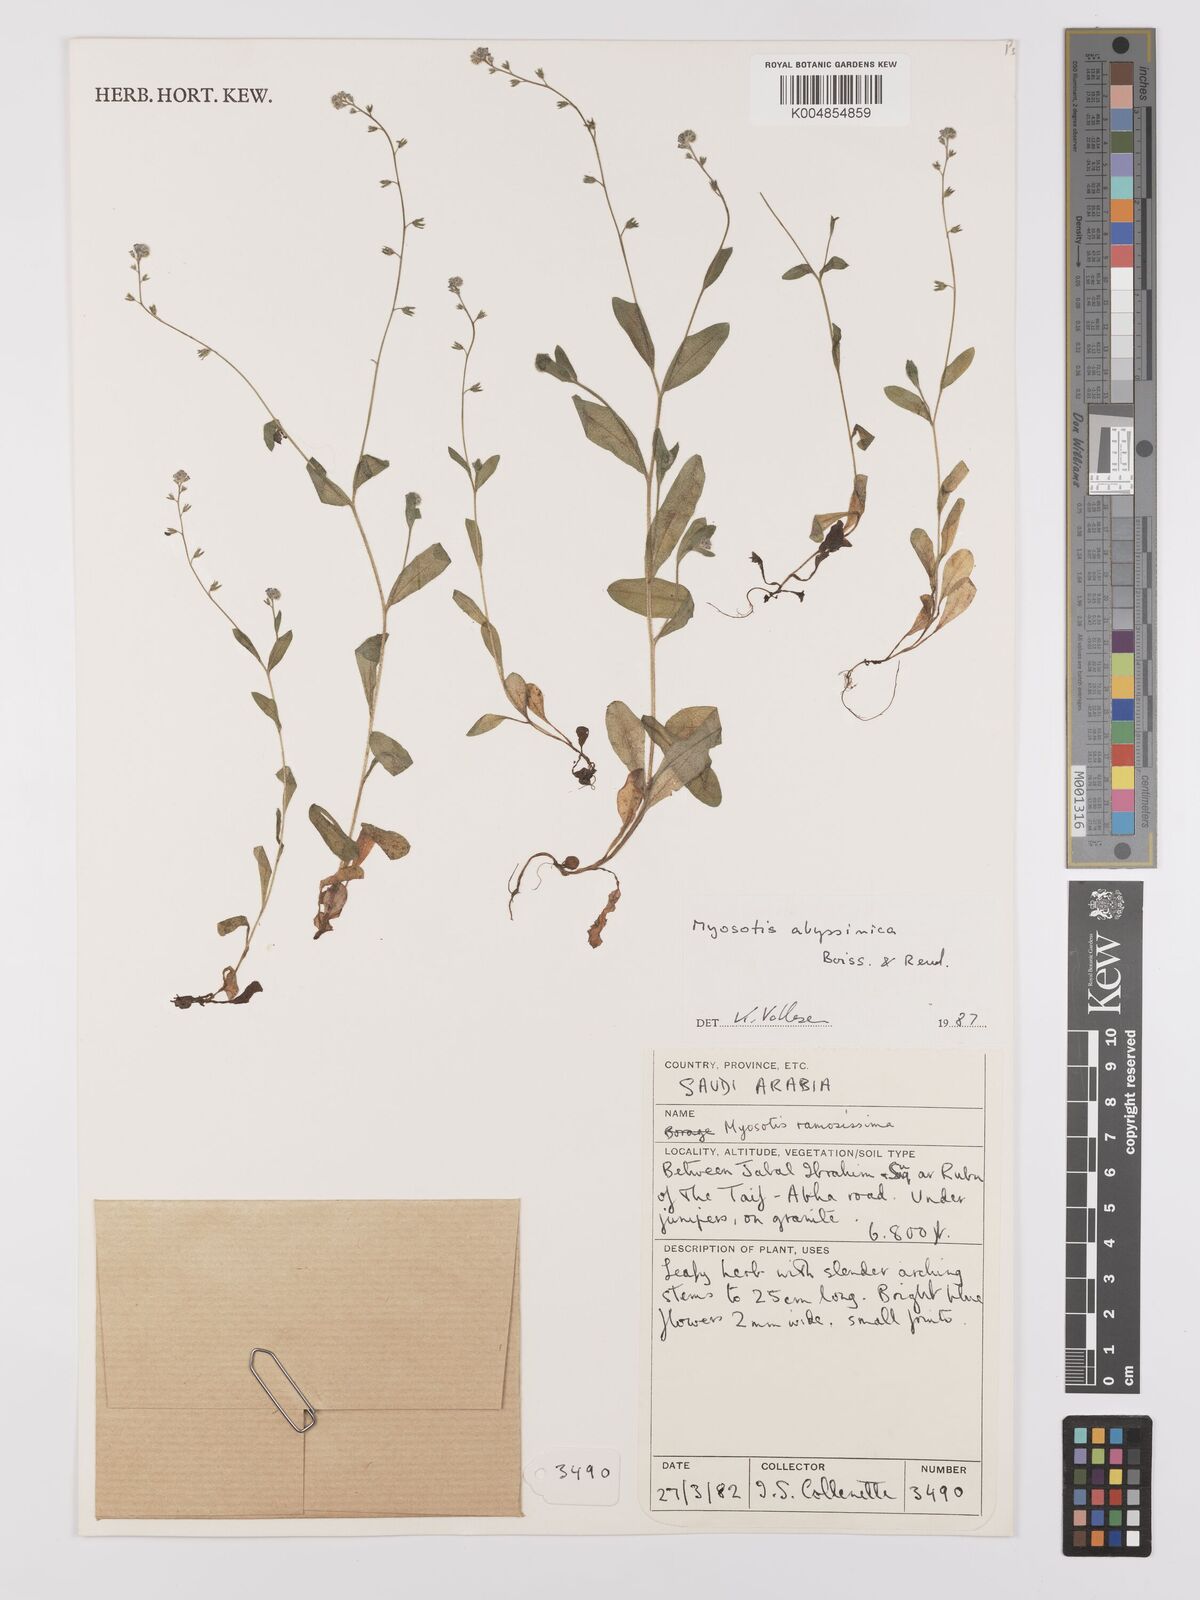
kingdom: Plantae
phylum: Tracheophyta
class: Magnoliopsida
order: Boraginales
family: Boraginaceae
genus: Myosotis
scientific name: Myosotis abyssinica
